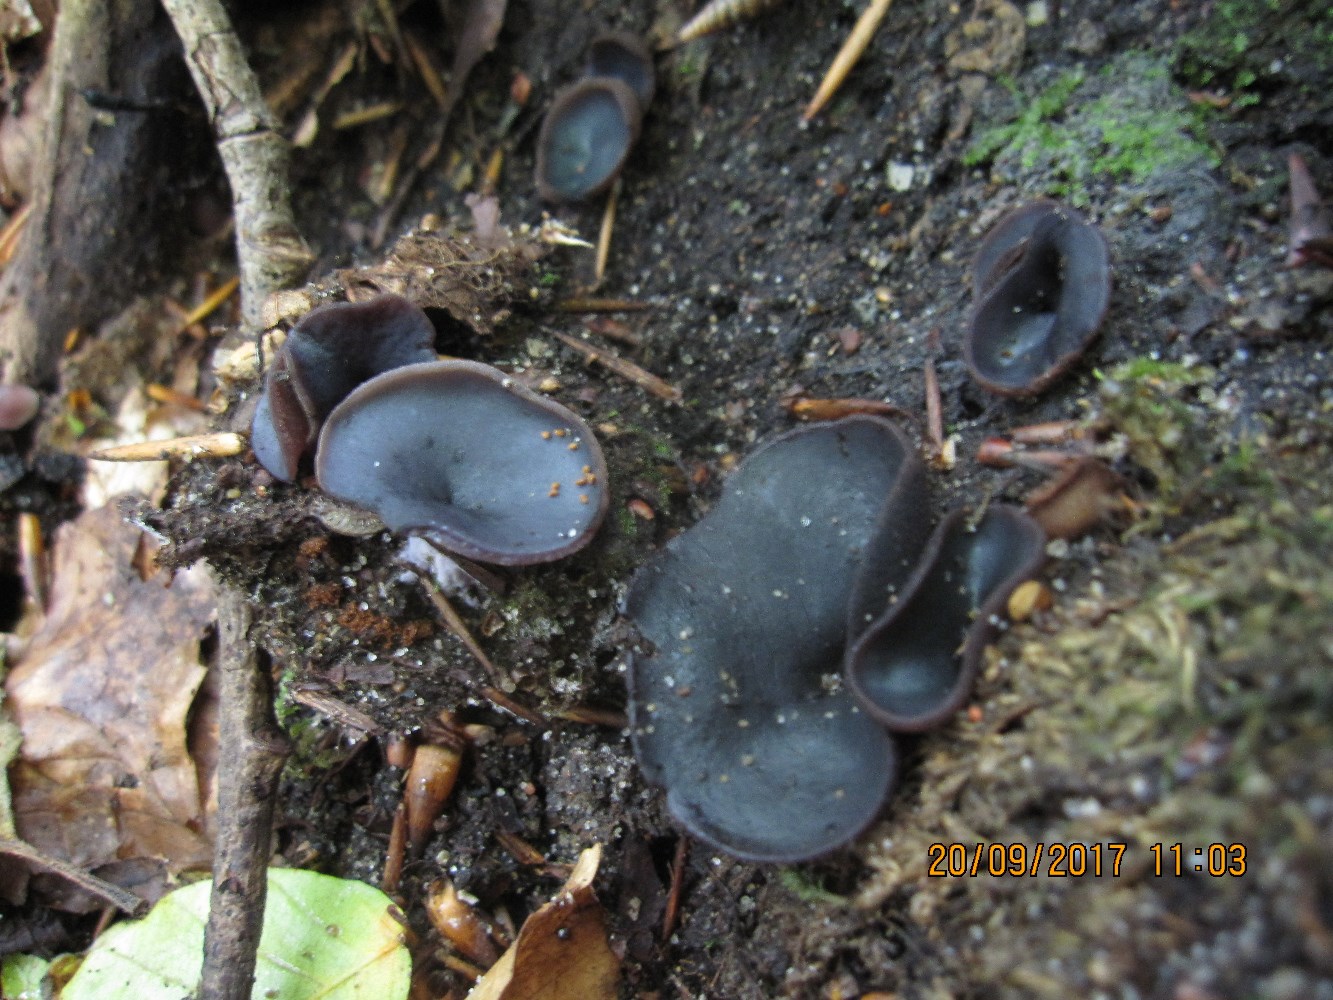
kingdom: Fungi
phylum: Ascomycota
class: Pezizomycetes
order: Pezizales
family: Pezizaceae
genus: Peziza
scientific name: Peziza saniosa
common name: blåmælket bægersvamp
